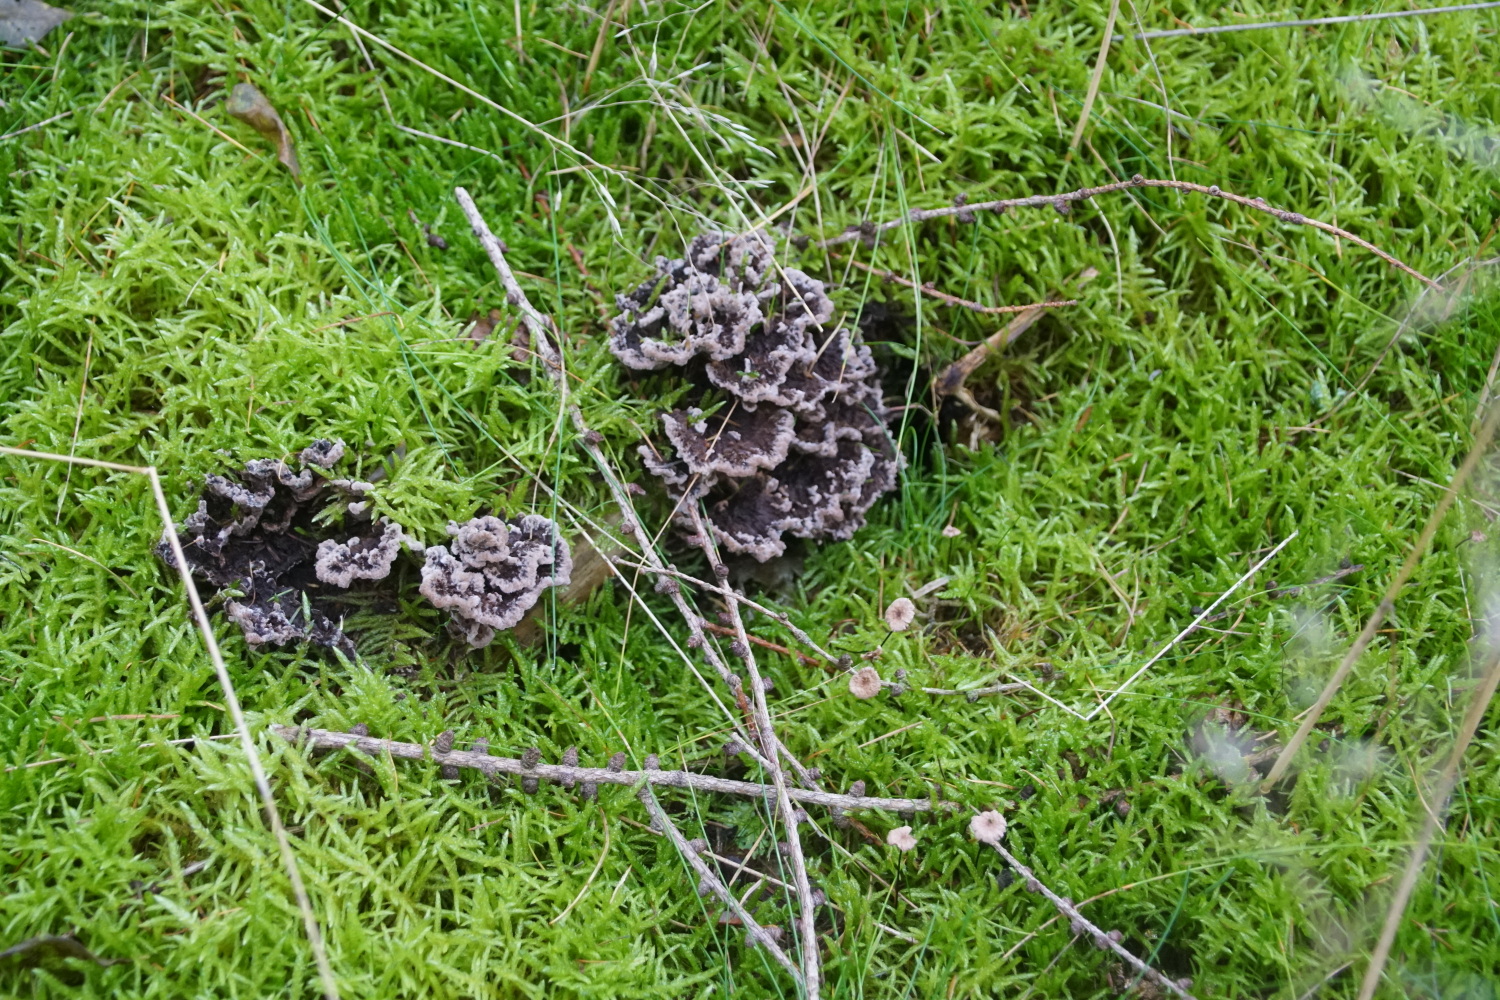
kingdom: Fungi
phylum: Basidiomycota
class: Agaricomycetes
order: Thelephorales
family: Thelephoraceae
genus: Thelephora
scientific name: Thelephora terrestris
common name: fliget frynsesvamp
